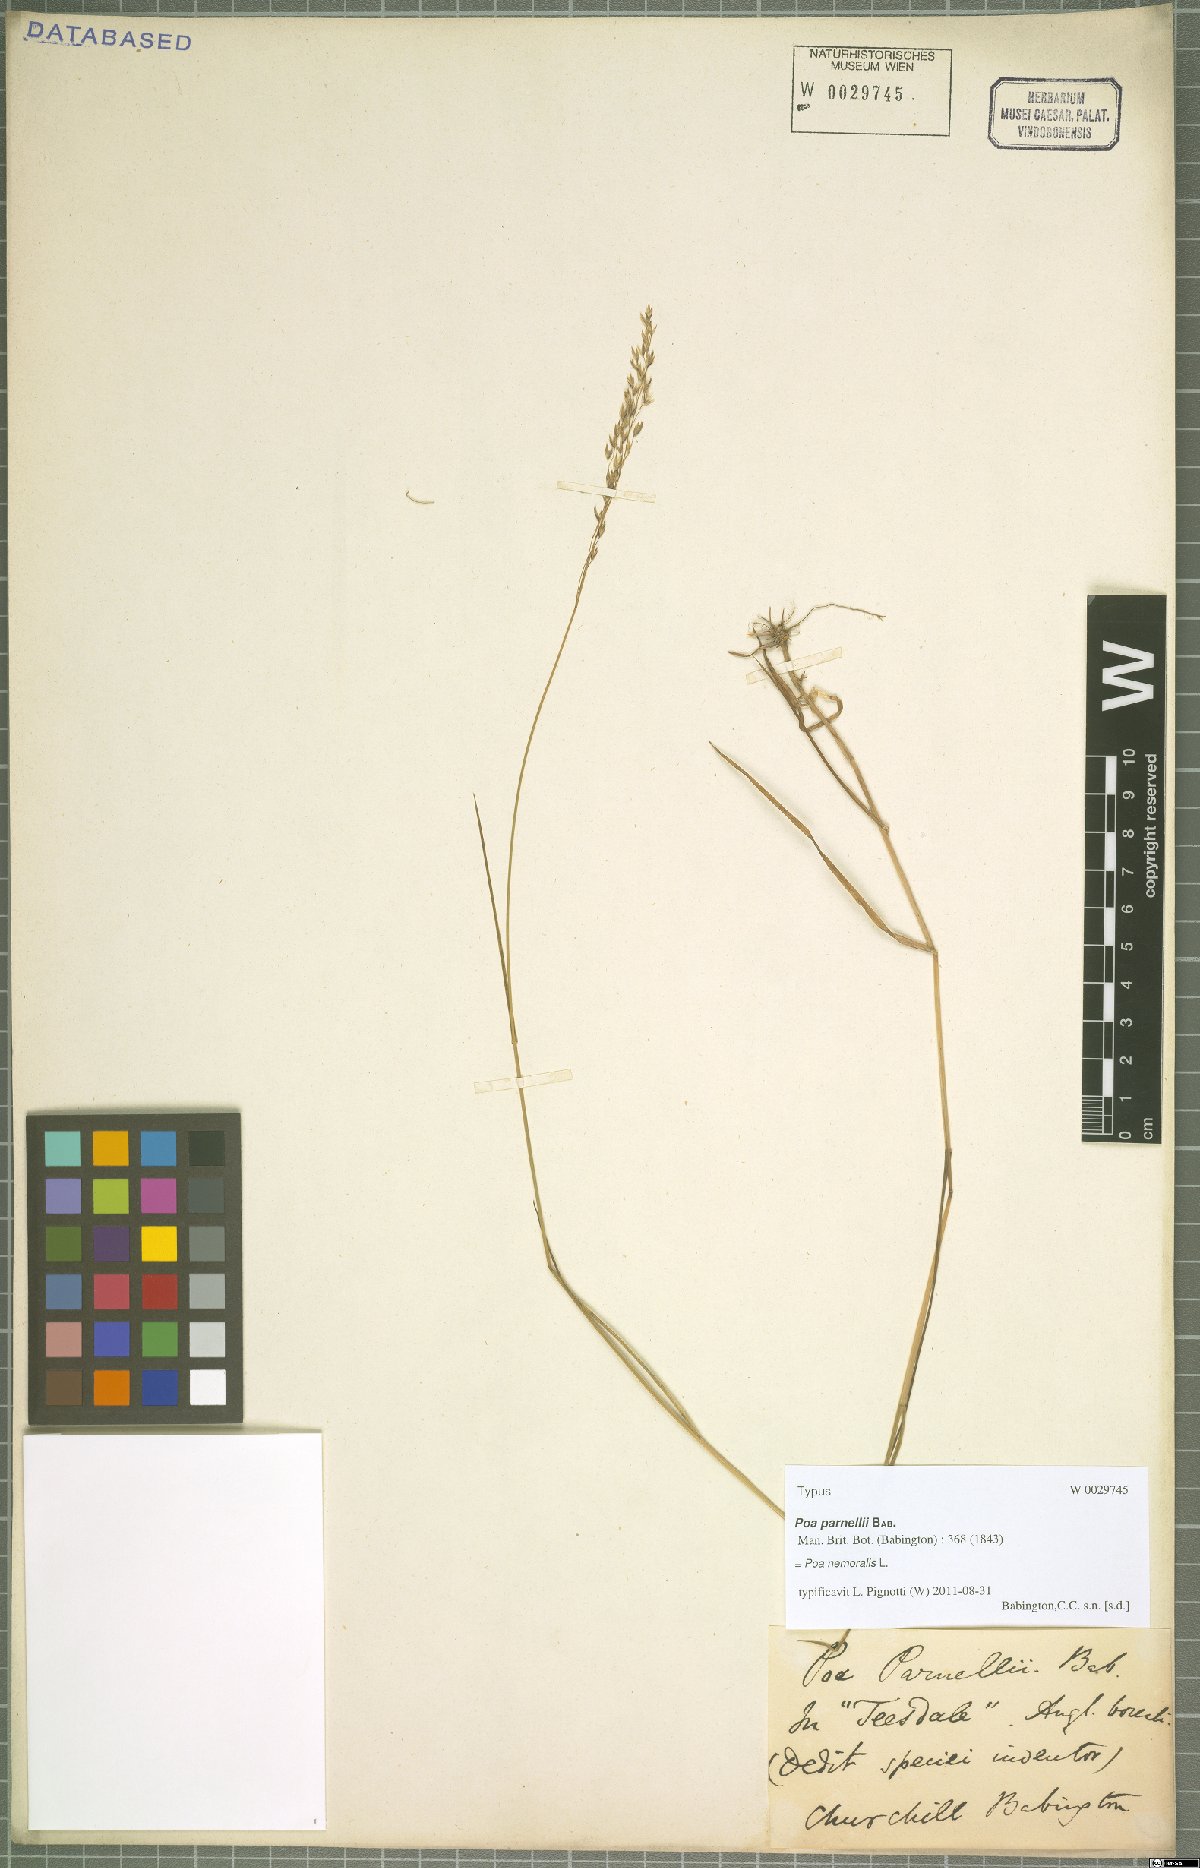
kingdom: Plantae
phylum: Tracheophyta
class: Liliopsida
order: Poales
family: Poaceae
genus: Poa
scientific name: Poa nemoralis
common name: Wood bluegrass
